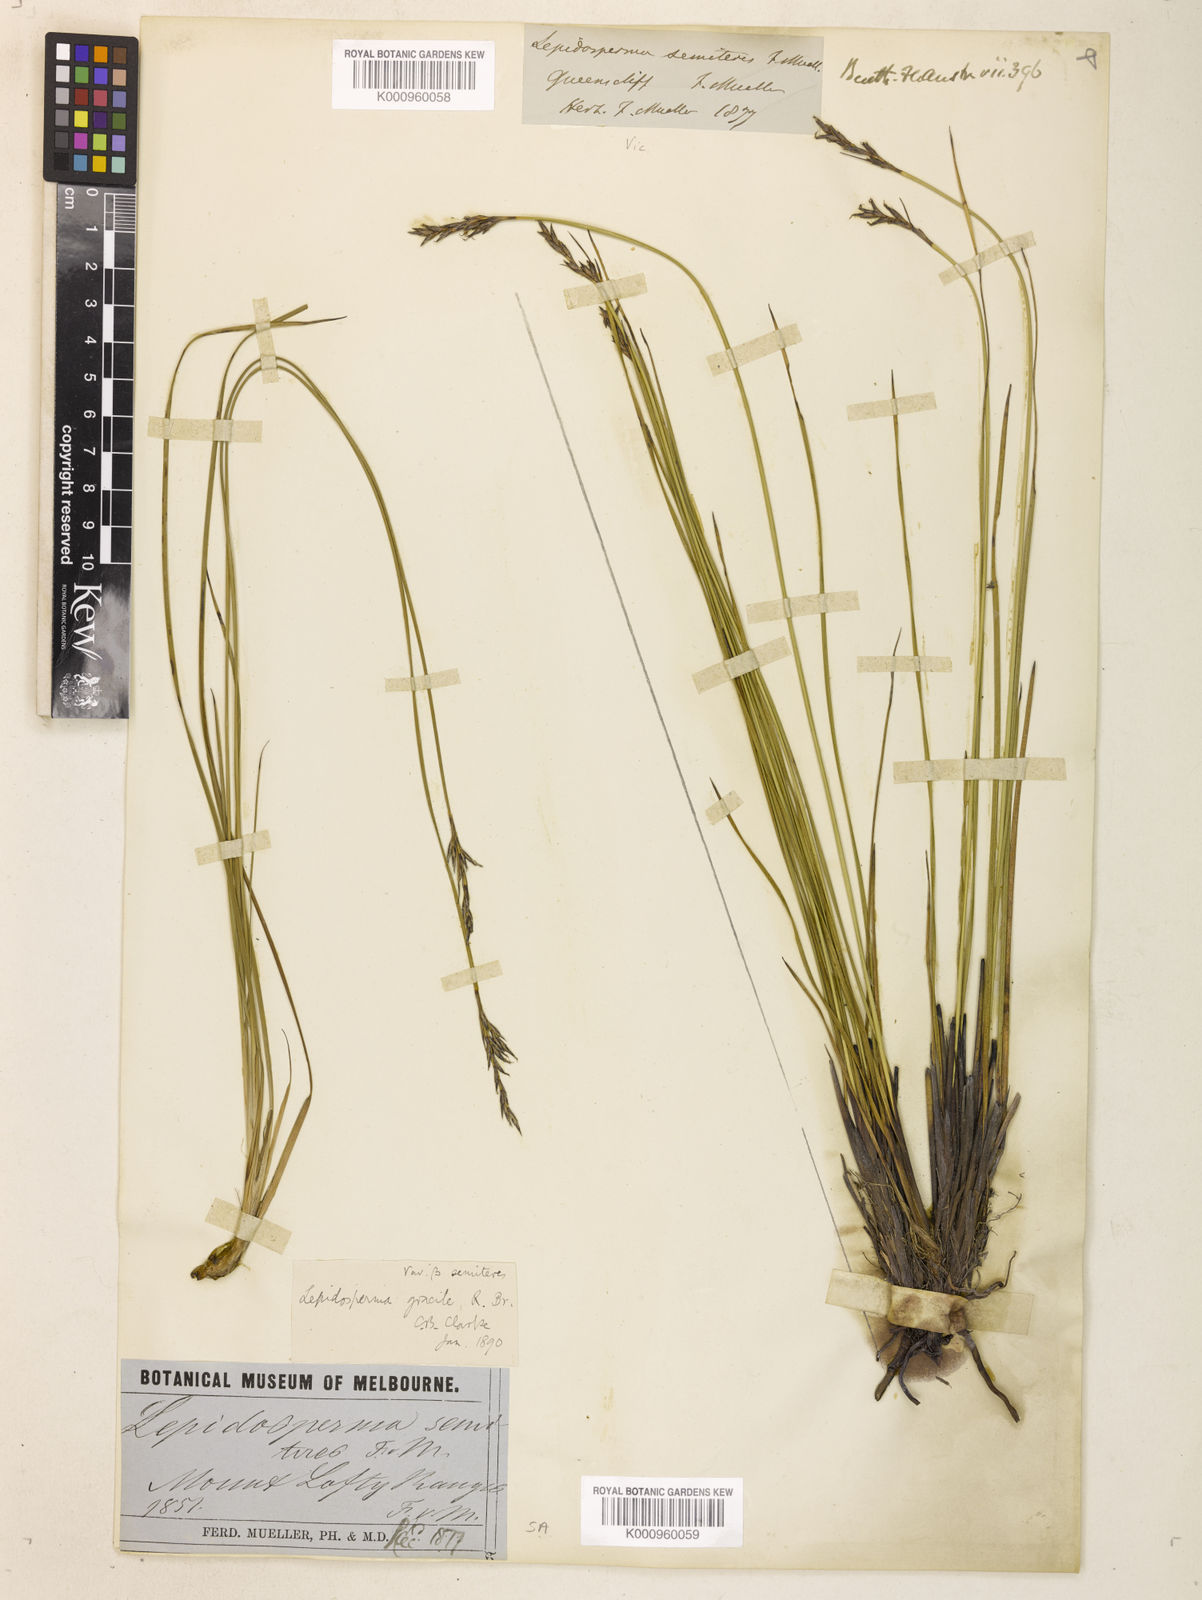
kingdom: Plantae
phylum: Tracheophyta
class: Liliopsida
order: Poales
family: Cyperaceae
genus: Lepidosperma
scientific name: Lepidosperma semiteres
